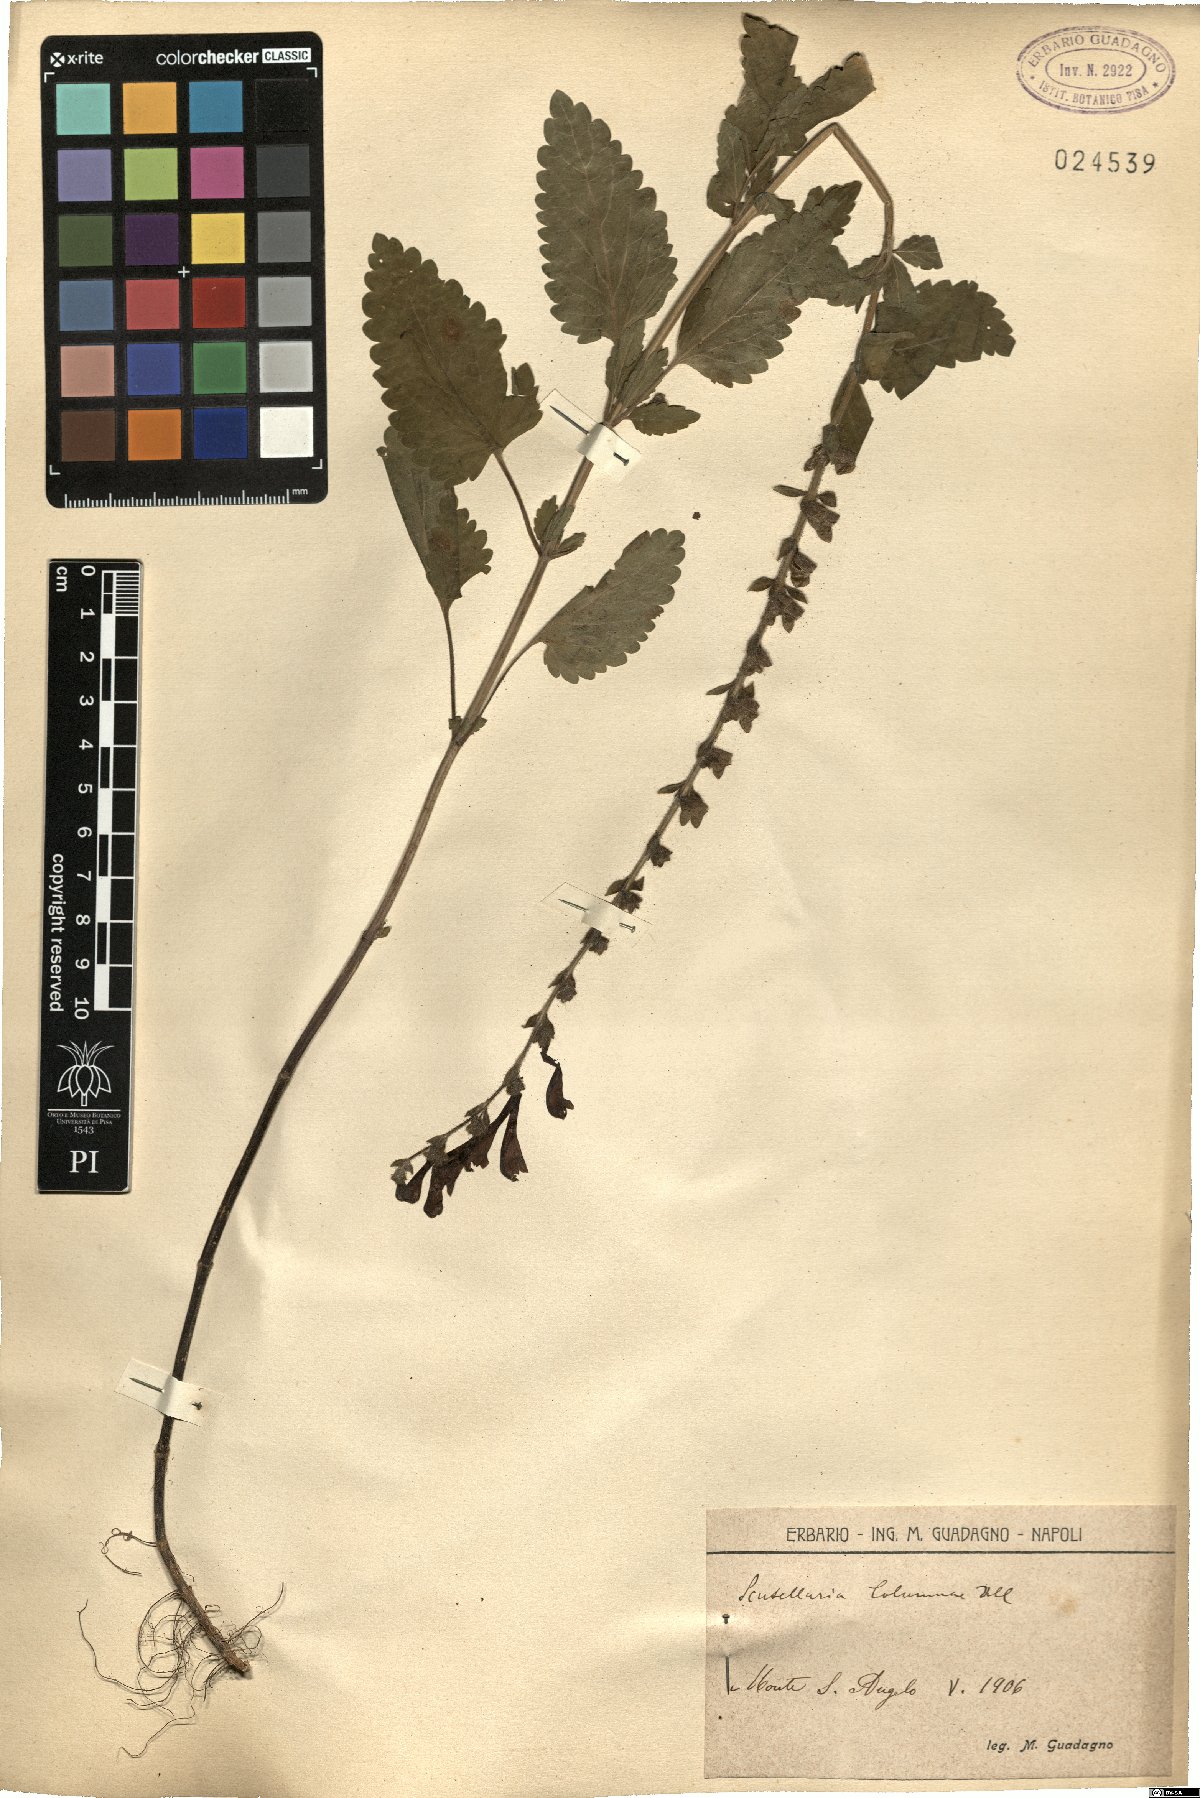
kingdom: Plantae
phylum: Tracheophyta
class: Magnoliopsida
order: Lamiales
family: Lamiaceae
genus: Scutellaria
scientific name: Scutellaria columnae
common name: Large skullcap
